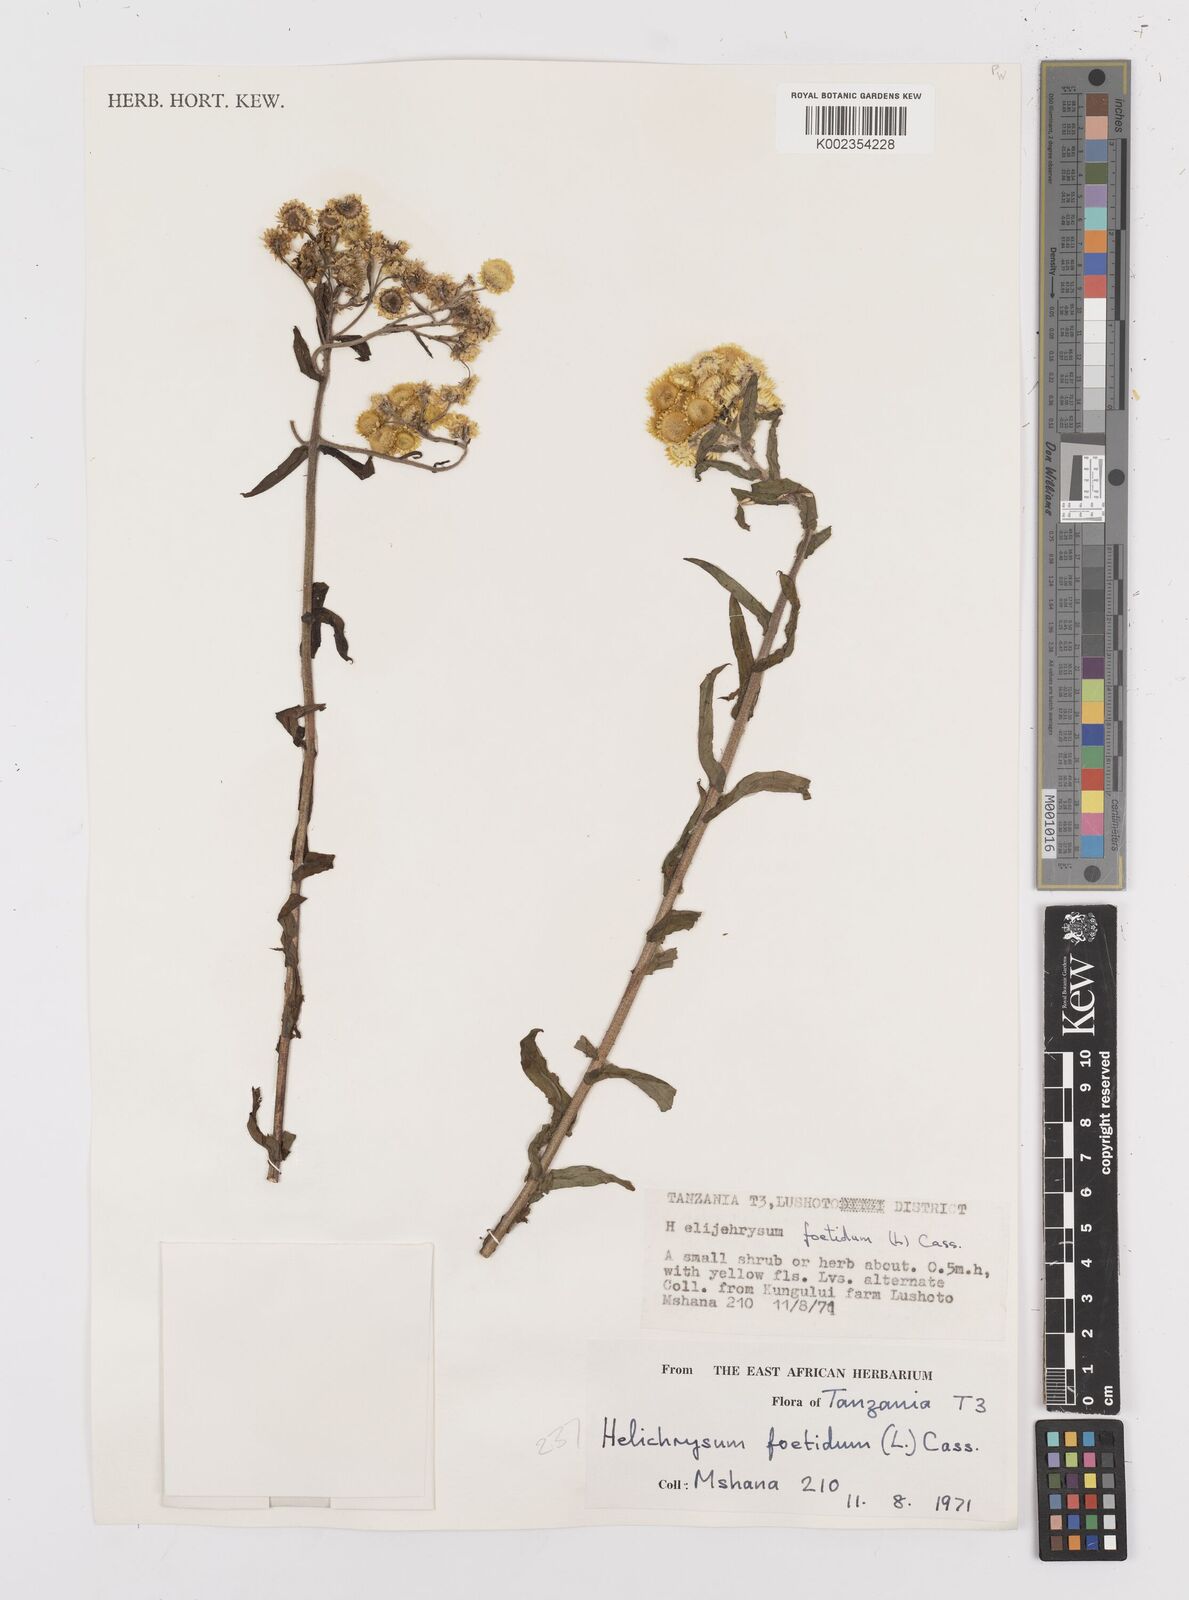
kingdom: Plantae
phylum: Tracheophyta
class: Magnoliopsida
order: Asterales
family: Asteraceae
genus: Helichrysum
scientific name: Helichrysum
